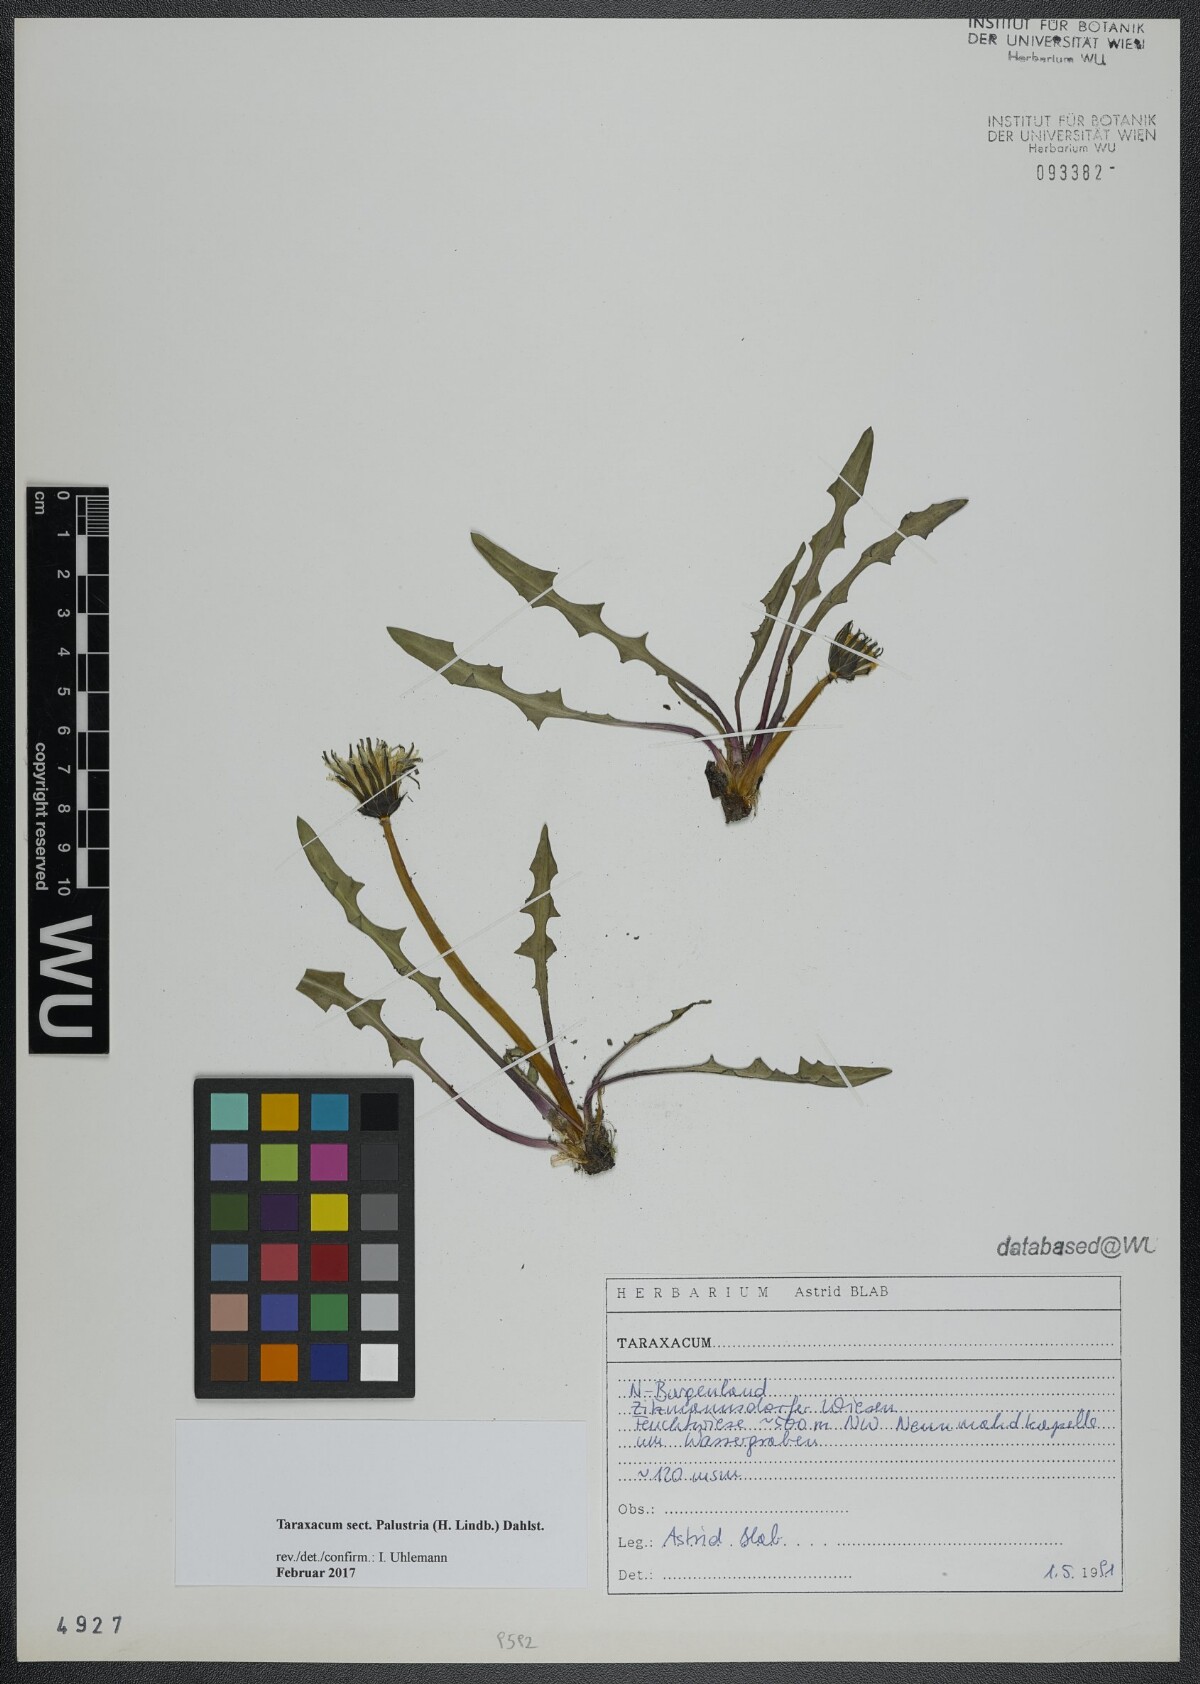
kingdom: Plantae
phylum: Tracheophyta
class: Magnoliopsida
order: Asterales
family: Asteraceae
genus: Taraxacum
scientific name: Taraxacum
